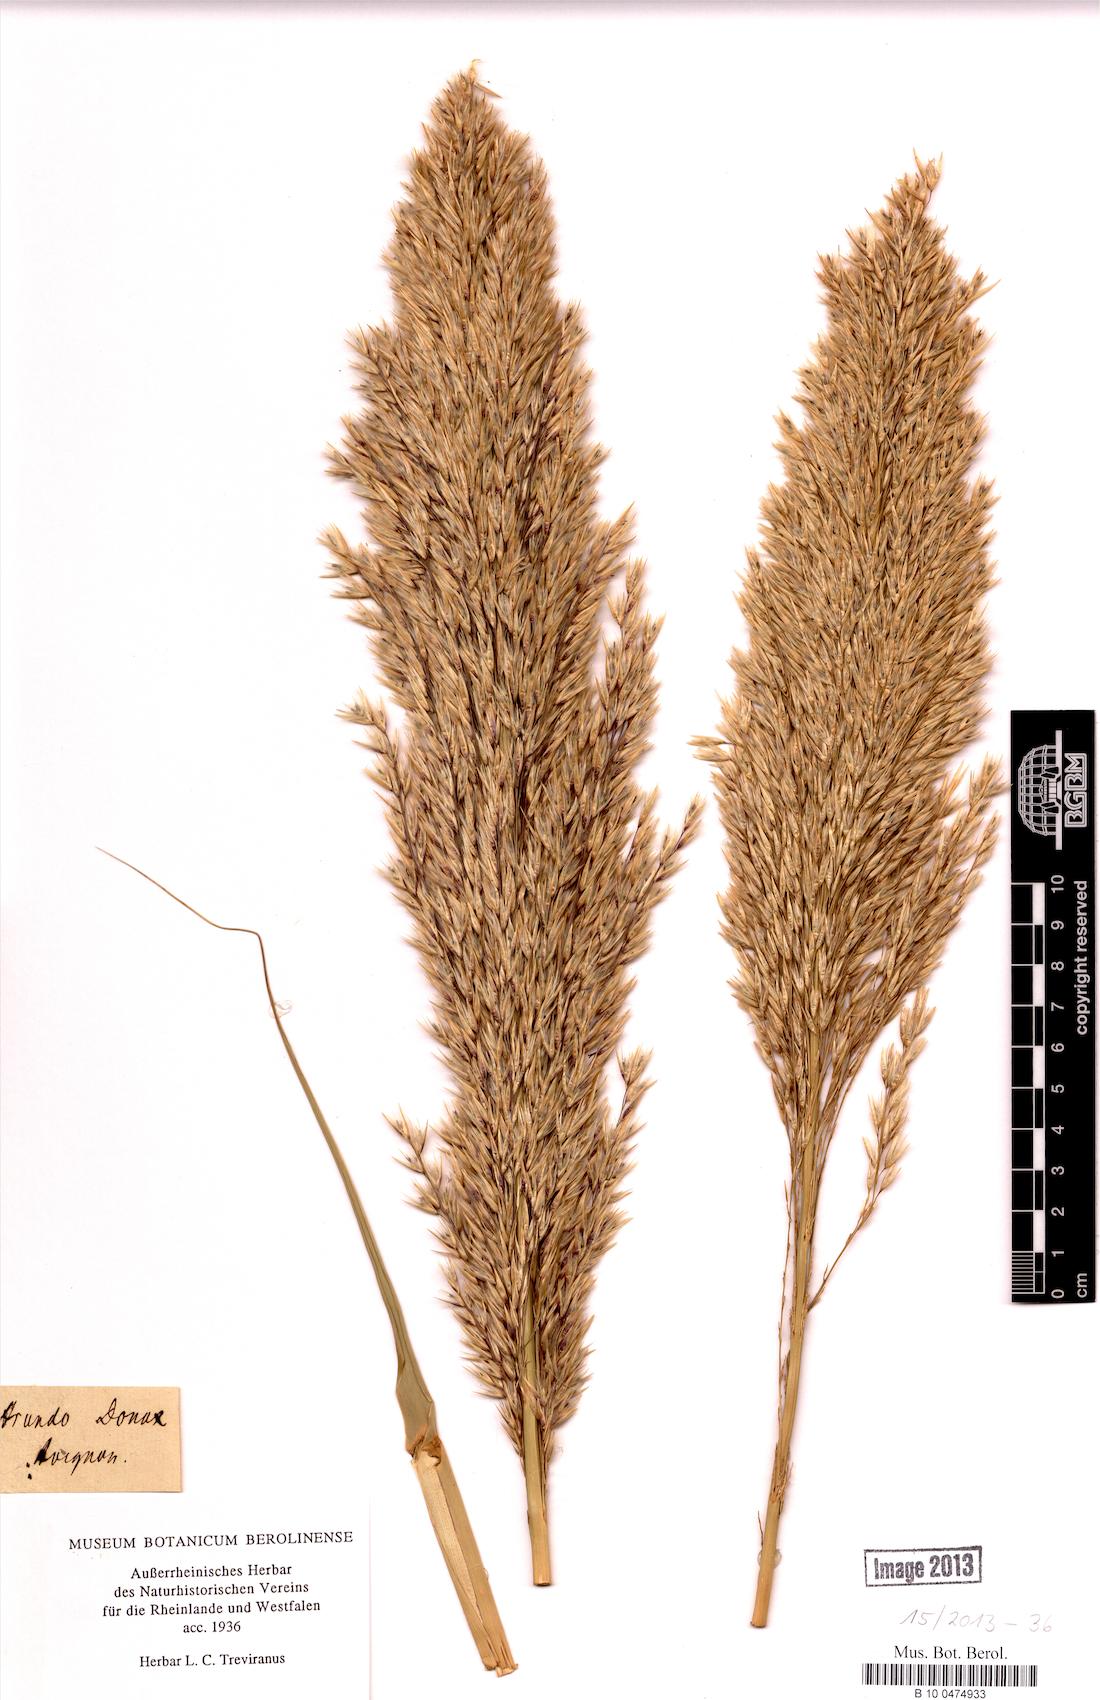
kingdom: Plantae
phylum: Tracheophyta
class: Liliopsida
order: Poales
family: Poaceae
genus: Arundo
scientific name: Arundo donax
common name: Giant reed
